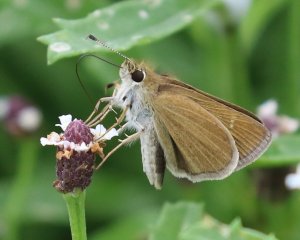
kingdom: Animalia
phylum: Arthropoda
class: Insecta
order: Lepidoptera
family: Hesperiidae
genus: Nastra
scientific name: Nastra julia
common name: Julia's Skipper
